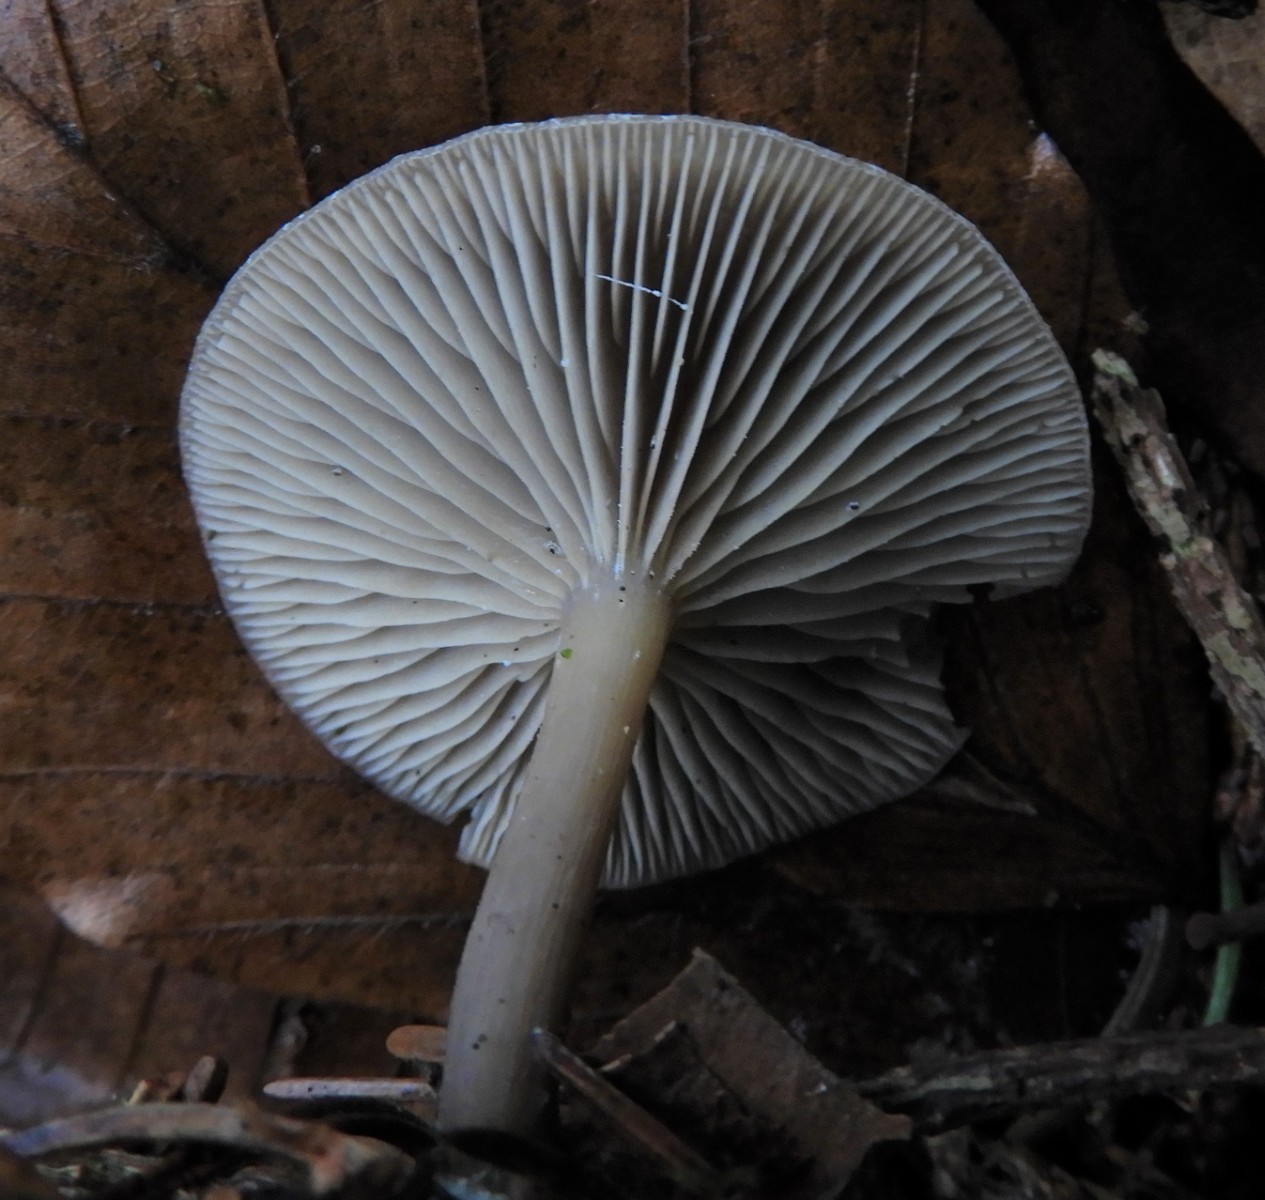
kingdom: Fungi
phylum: Basidiomycota
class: Agaricomycetes
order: Agaricales
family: Tricholomataceae
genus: Clitocybe
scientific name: Clitocybe metachroa
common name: grå tragthat
